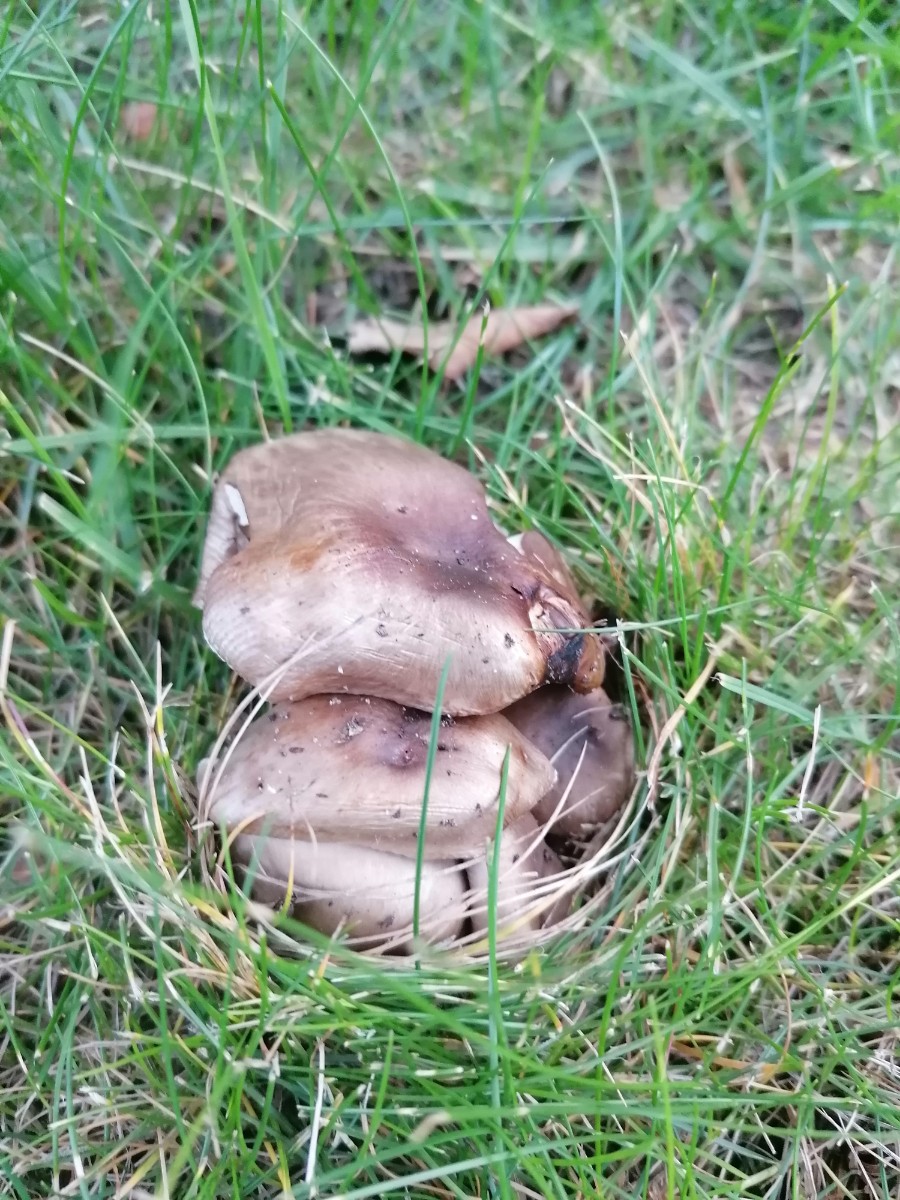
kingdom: Fungi
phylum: Basidiomycota
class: Agaricomycetes
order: Russulales
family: Russulaceae
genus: Russula
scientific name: Russula
